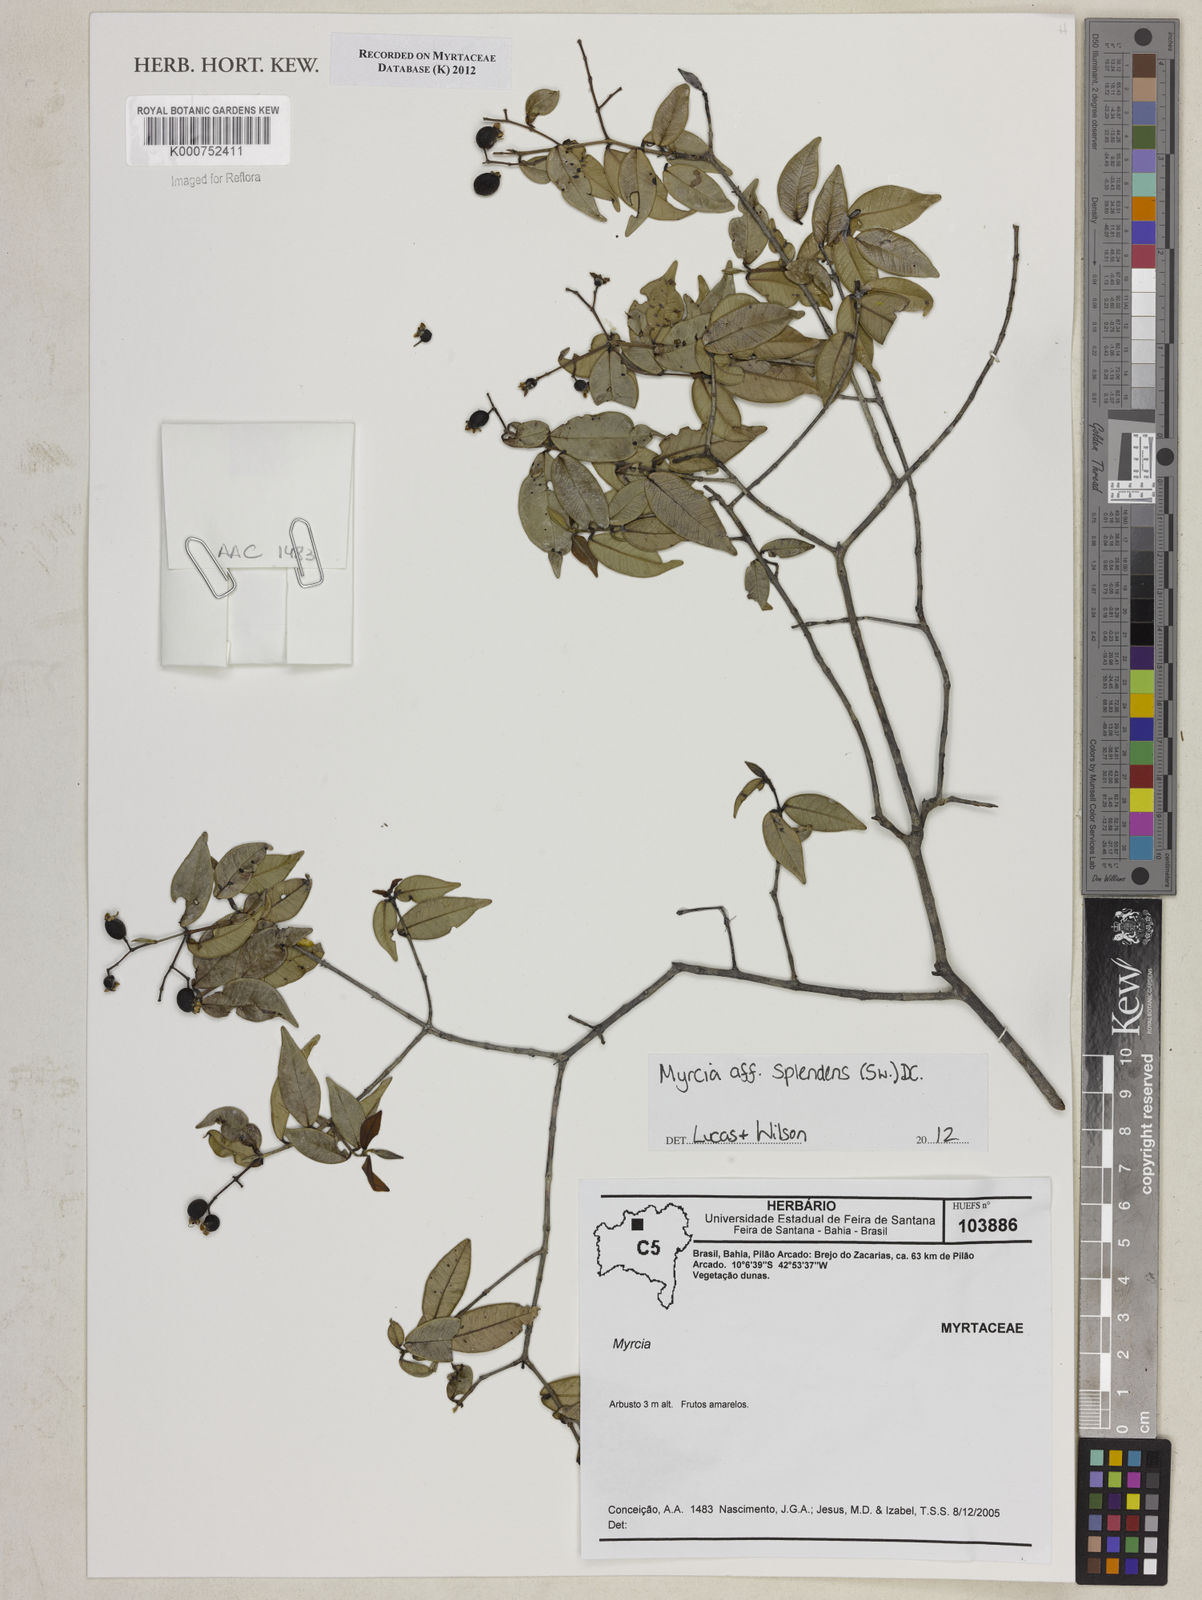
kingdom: Plantae
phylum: Tracheophyta
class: Magnoliopsida
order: Myrtales
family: Myrtaceae
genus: Myrcia
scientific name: Myrcia splendens
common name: Surinam cherry
